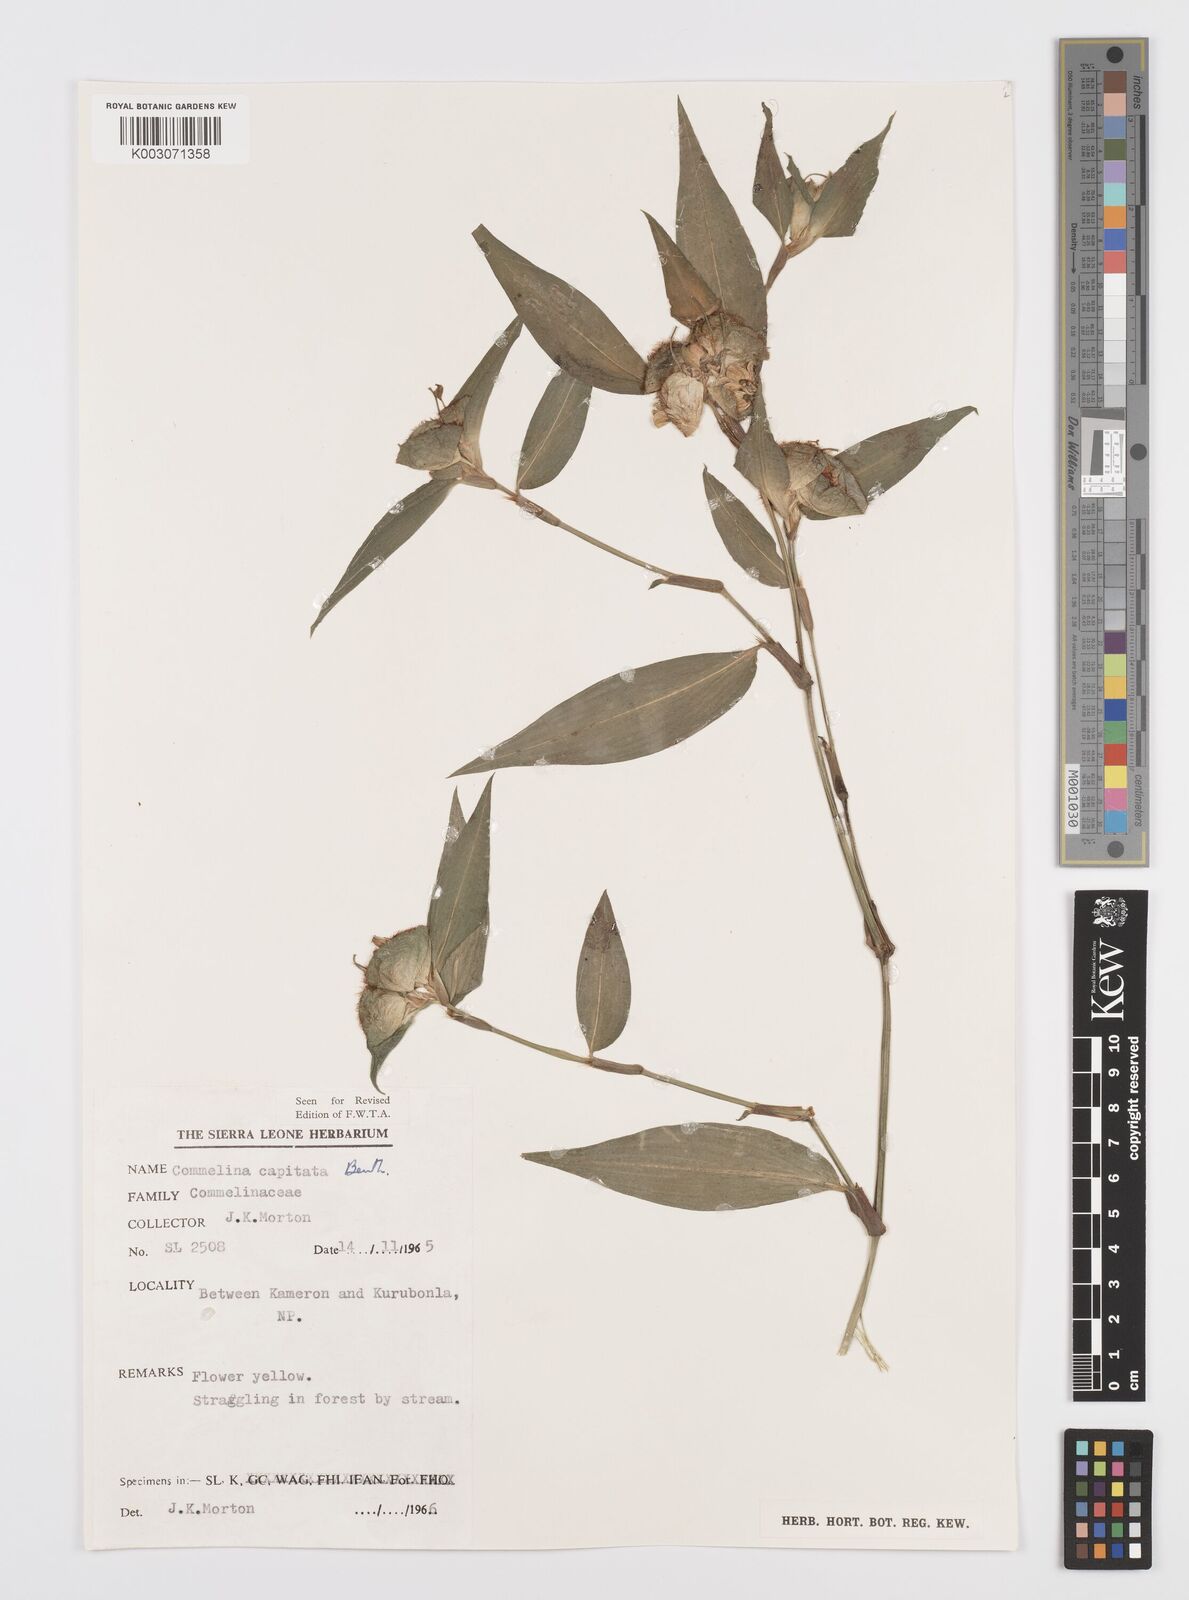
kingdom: Plantae
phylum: Tracheophyta
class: Liliopsida
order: Commelinales
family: Commelinaceae
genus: Commelina
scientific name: Commelina capitata
